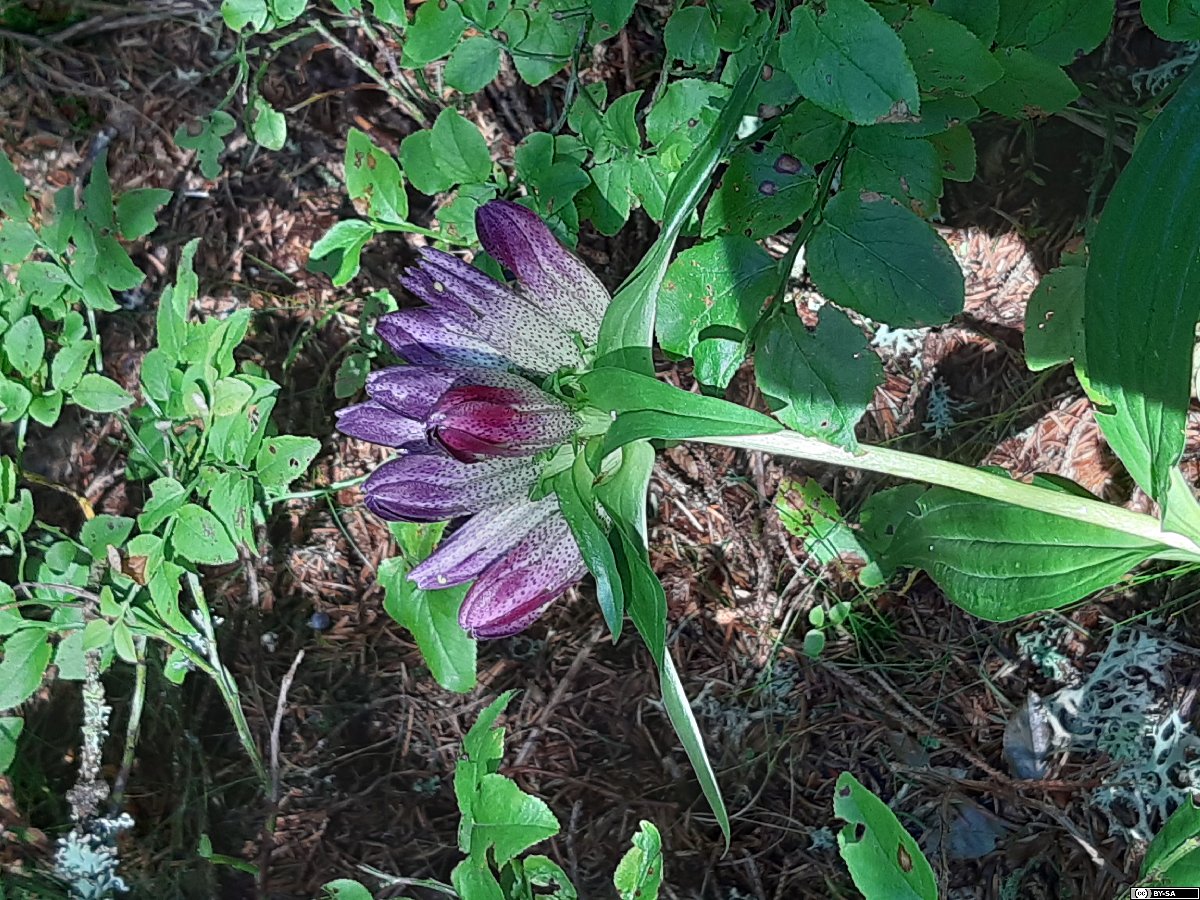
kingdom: Plantae
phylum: Tracheophyta
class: Magnoliopsida
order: Gentianales
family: Gentianaceae
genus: Gentiana
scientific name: Gentiana pannonica
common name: Hungarian gentian
